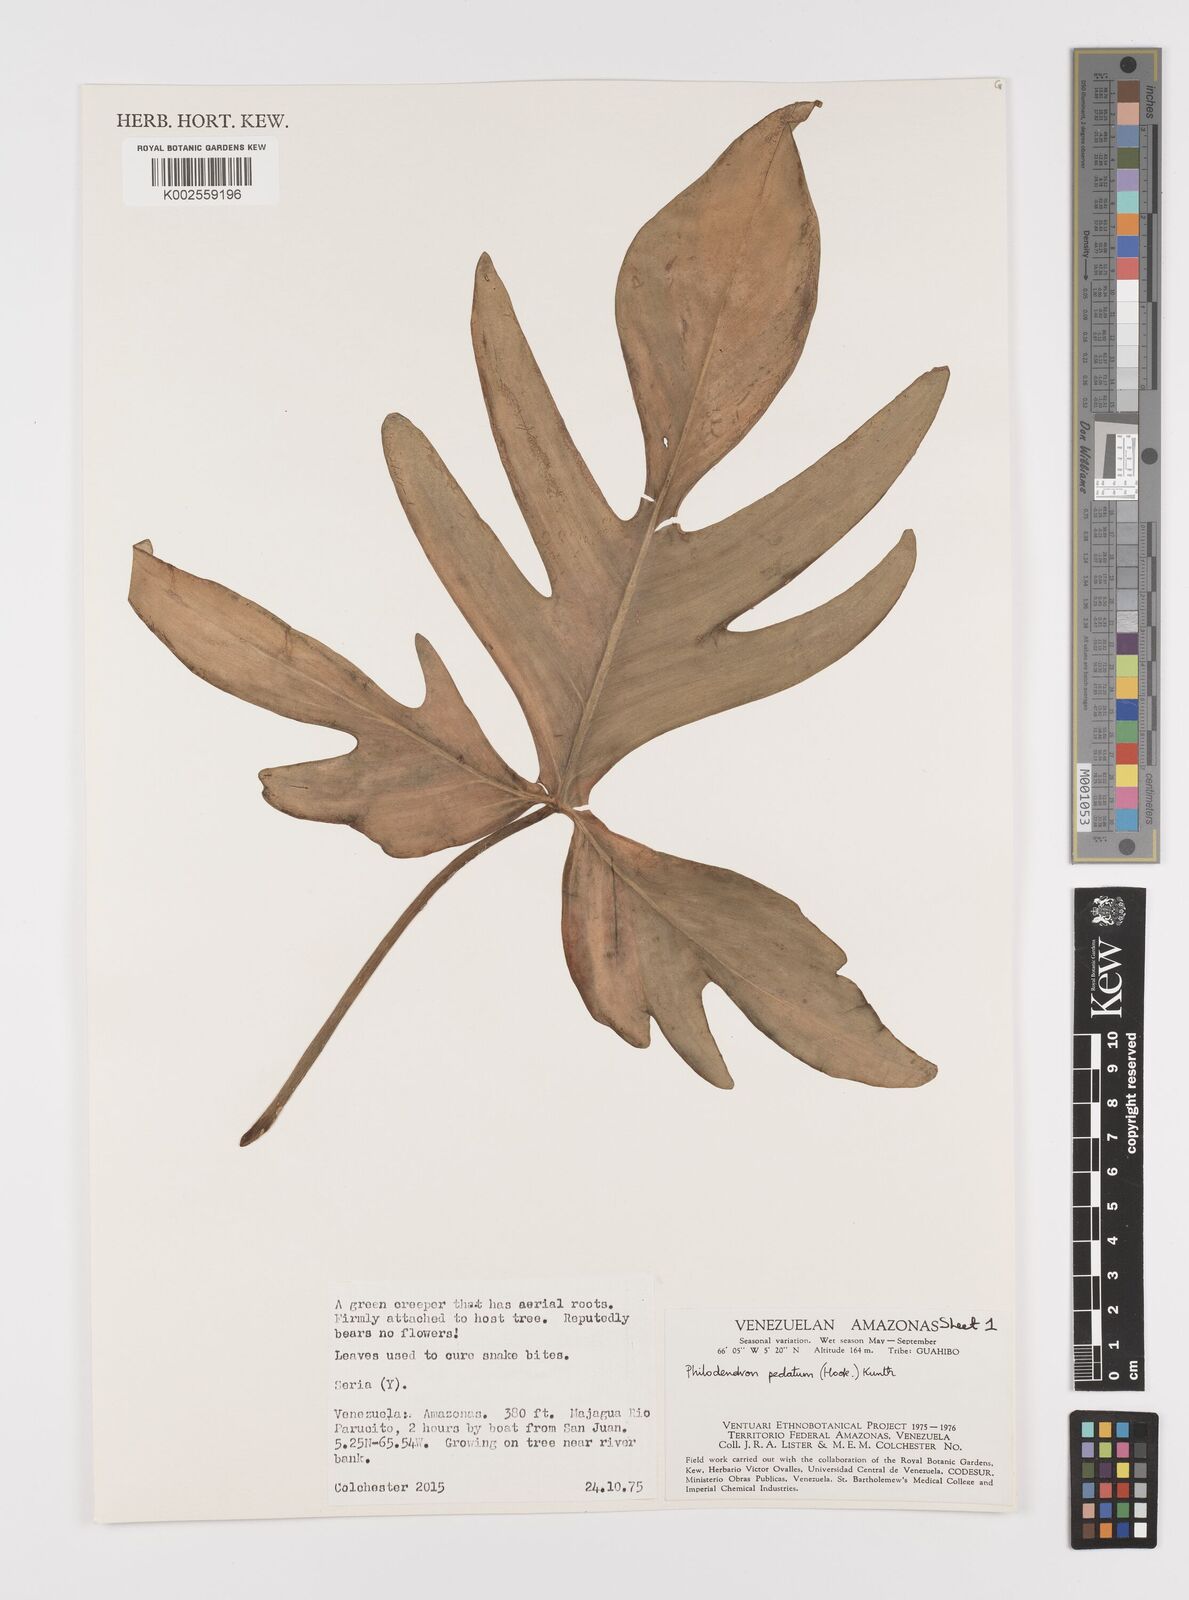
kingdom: Plantae
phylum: Tracheophyta
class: Liliopsida
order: Alismatales
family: Araceae
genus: Philodendron
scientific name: Philodendron pedatum
